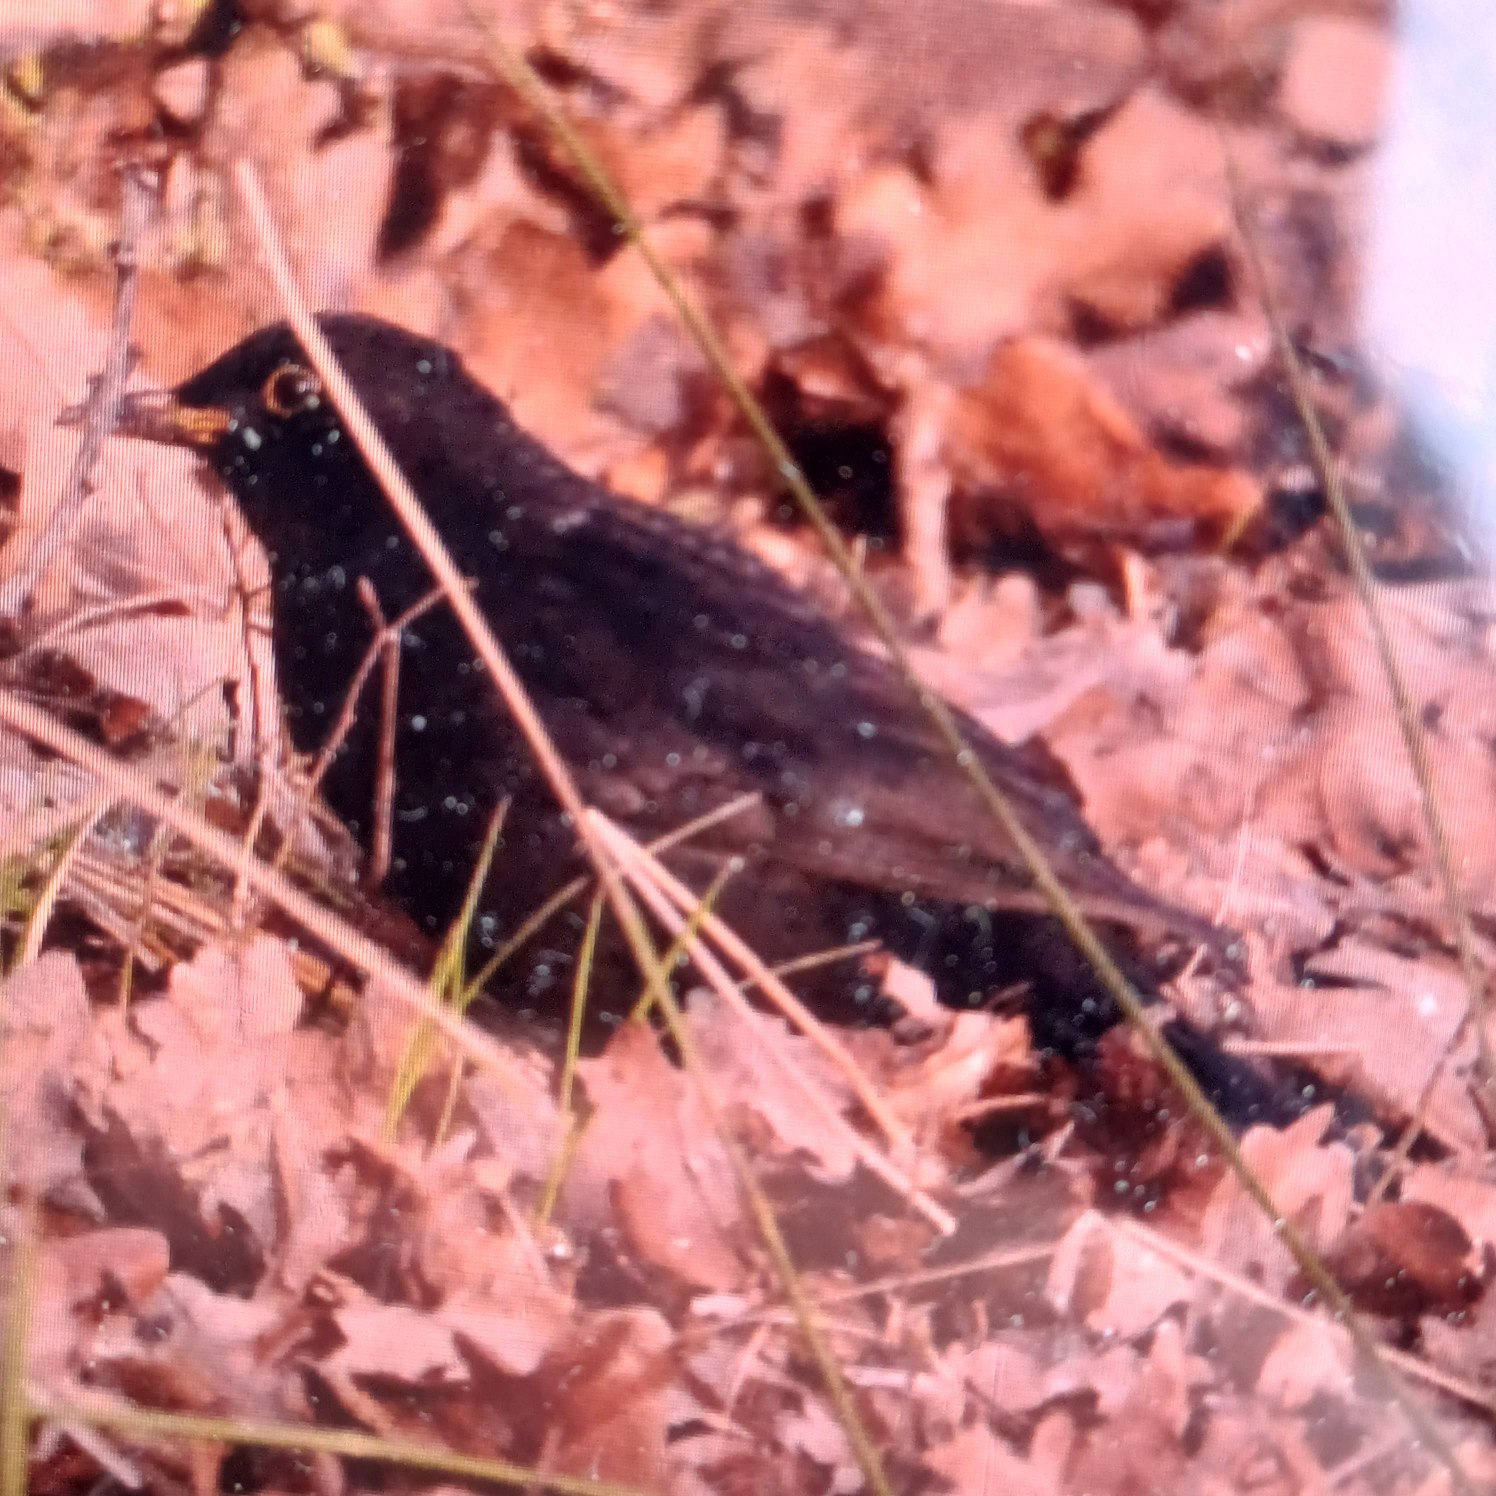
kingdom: Animalia
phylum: Chordata
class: Aves
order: Passeriformes
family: Turdidae
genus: Turdus
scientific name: Turdus merula
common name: Solsort
